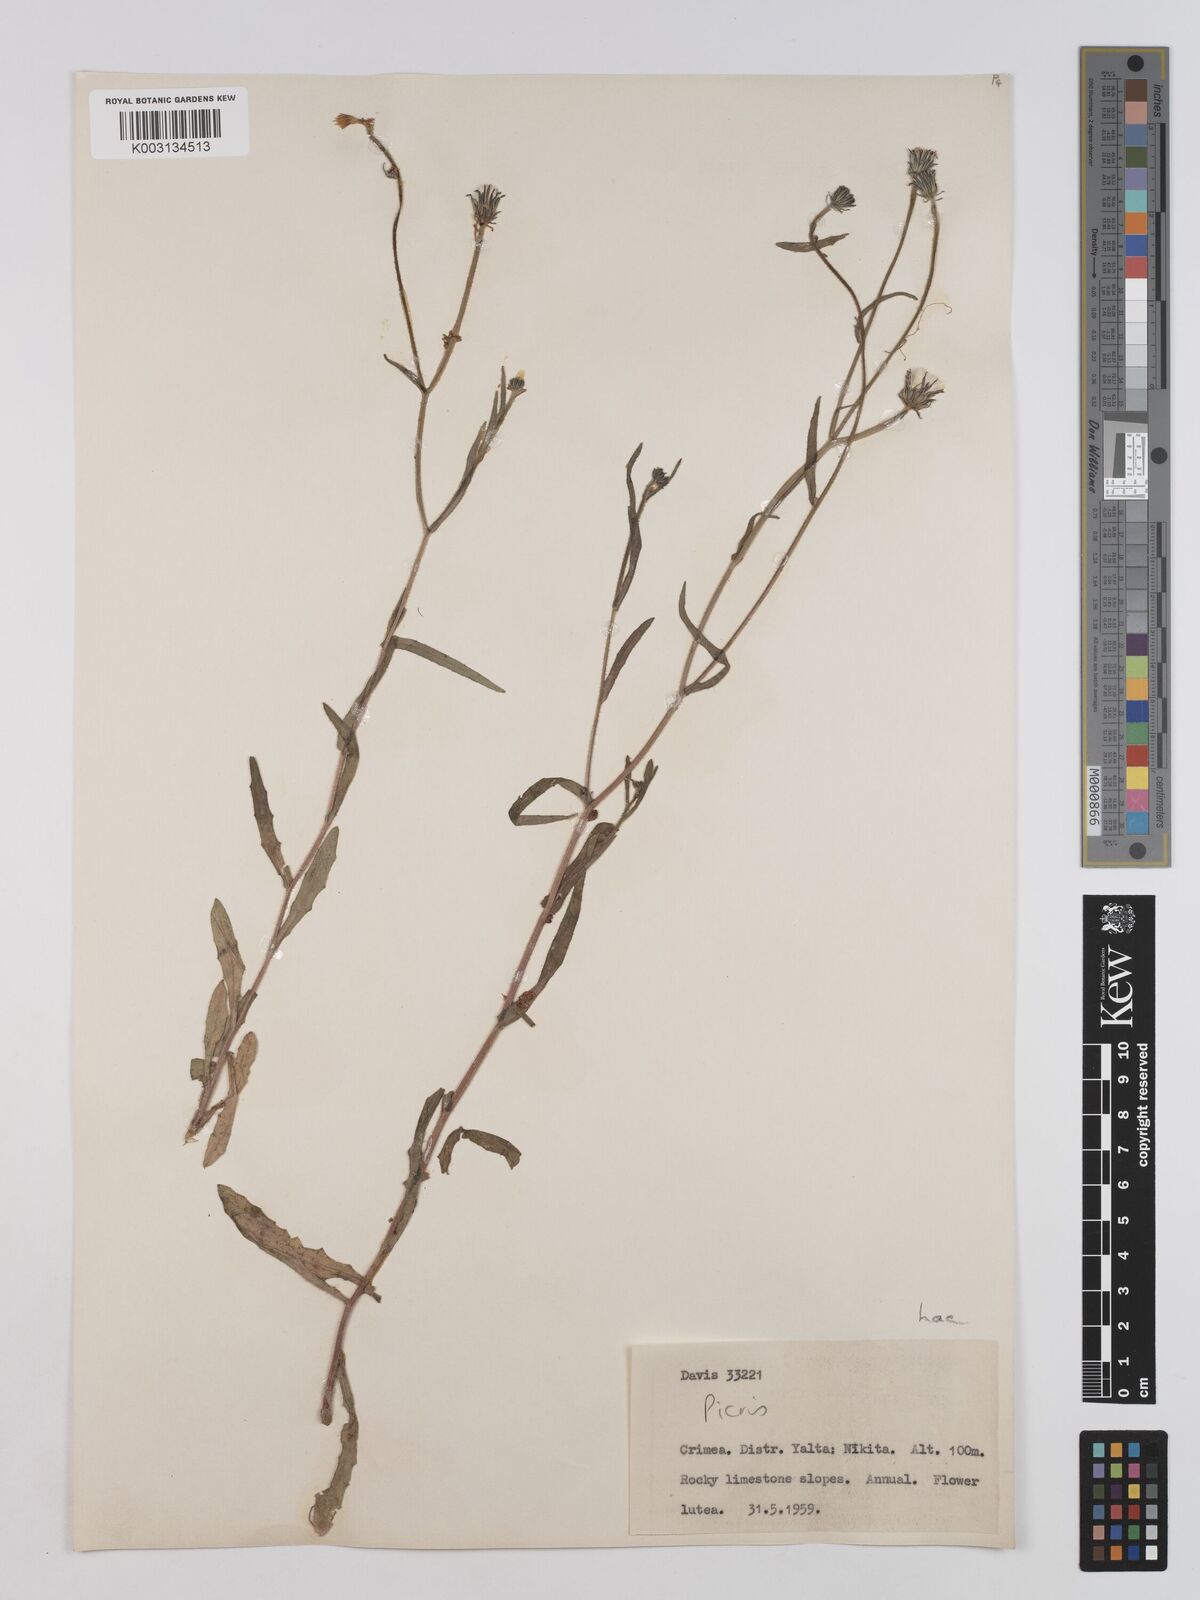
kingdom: Plantae
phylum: Tracheophyta
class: Magnoliopsida
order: Asterales
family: Asteraceae
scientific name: Asteraceae
